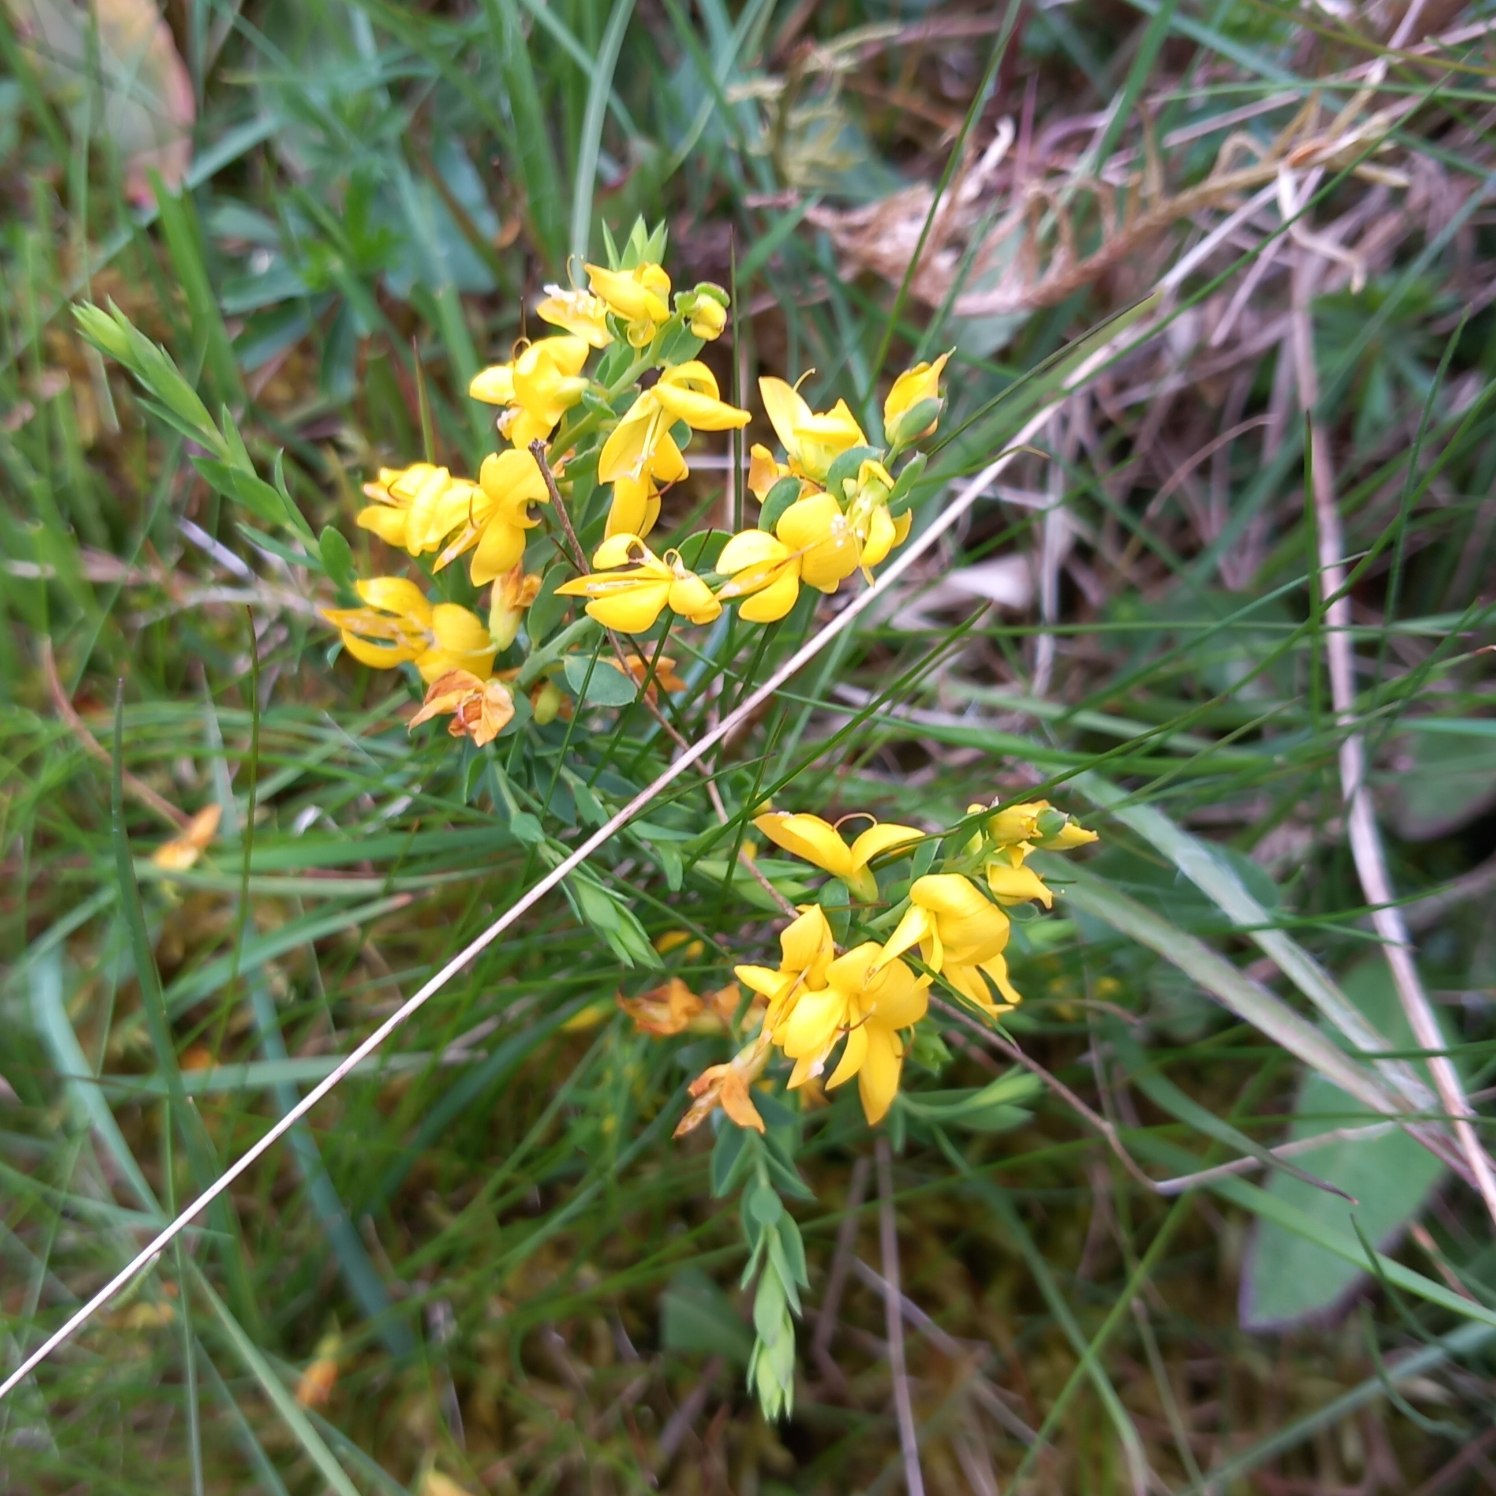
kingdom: Plantae
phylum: Tracheophyta
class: Magnoliopsida
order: Fabales
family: Fabaceae
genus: Genista
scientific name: Genista anglica
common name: Engelsk visse
